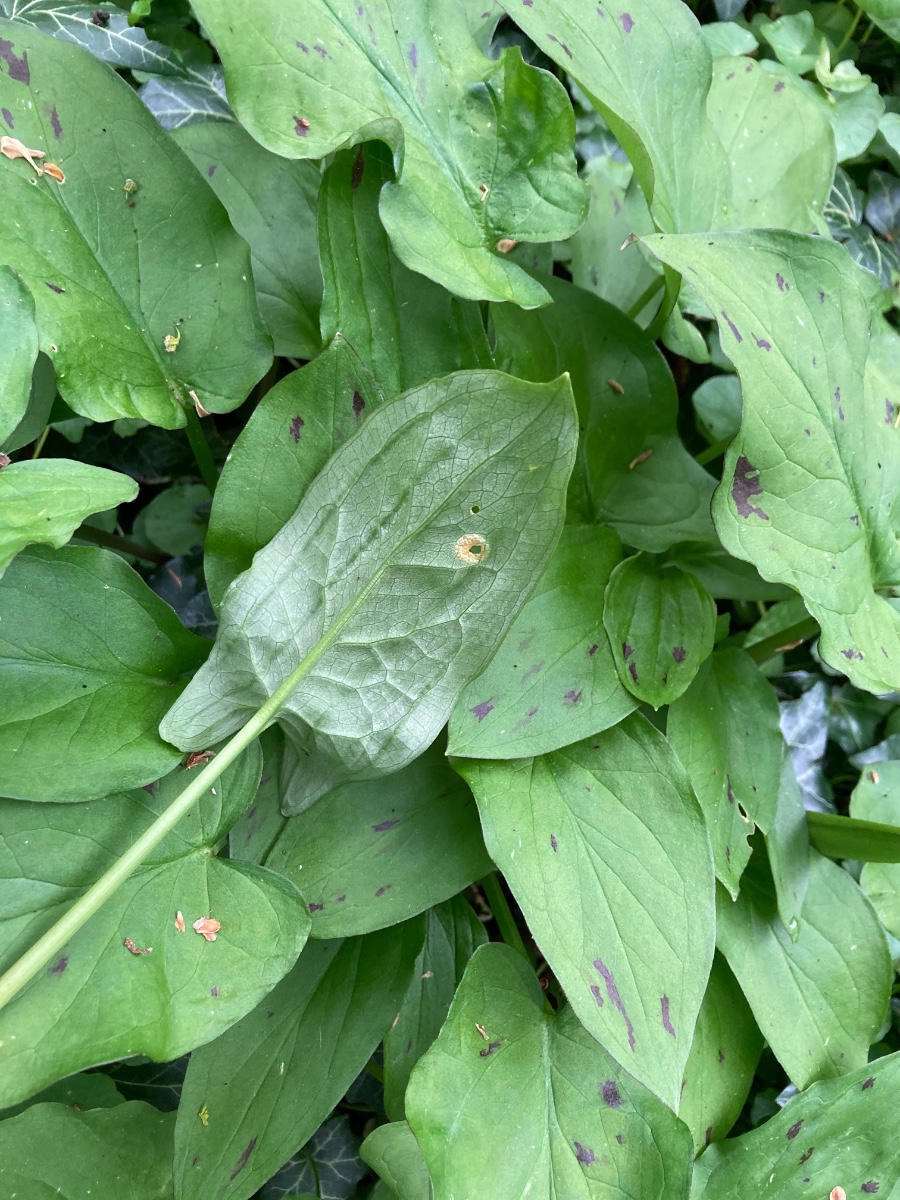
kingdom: Fungi
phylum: Basidiomycota
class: Pucciniomycetes
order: Pucciniales
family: Pucciniaceae
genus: Puccinia
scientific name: Puccinia sessilis
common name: Arum rust
